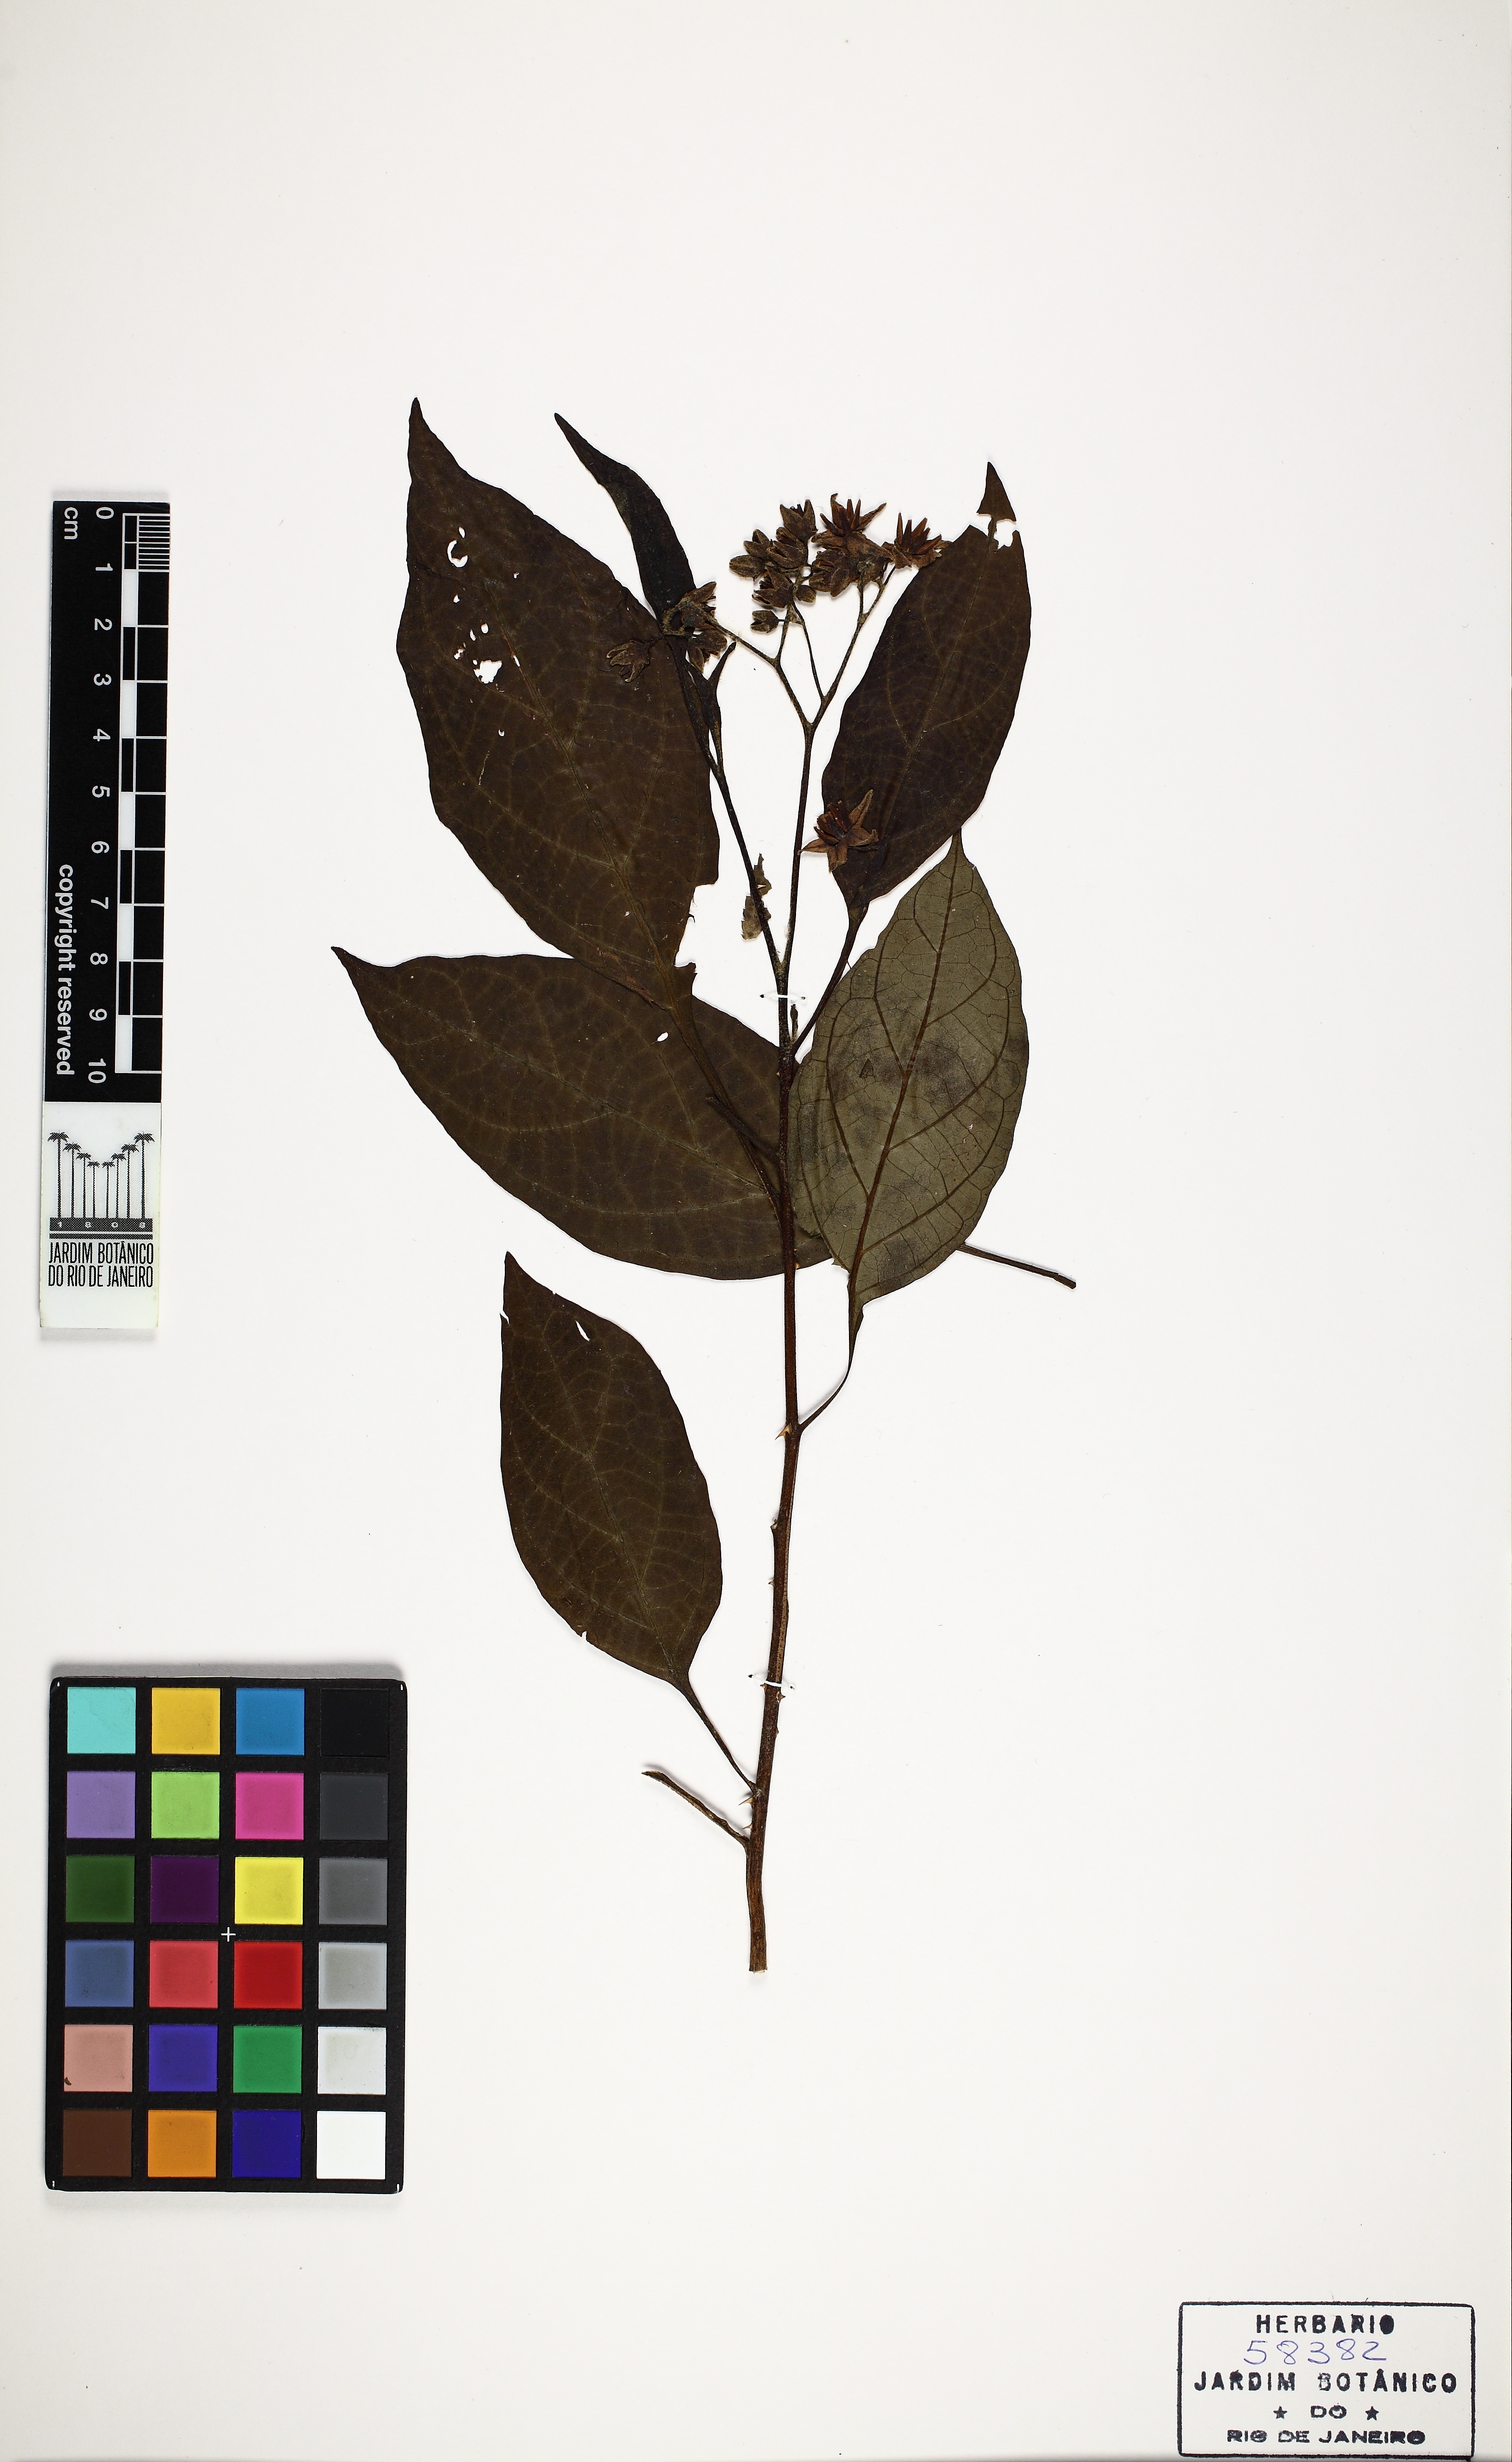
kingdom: Plantae
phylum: Tracheophyta
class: Magnoliopsida
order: Solanales
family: Solanaceae
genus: Solanum
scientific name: Solanum insidiosum
